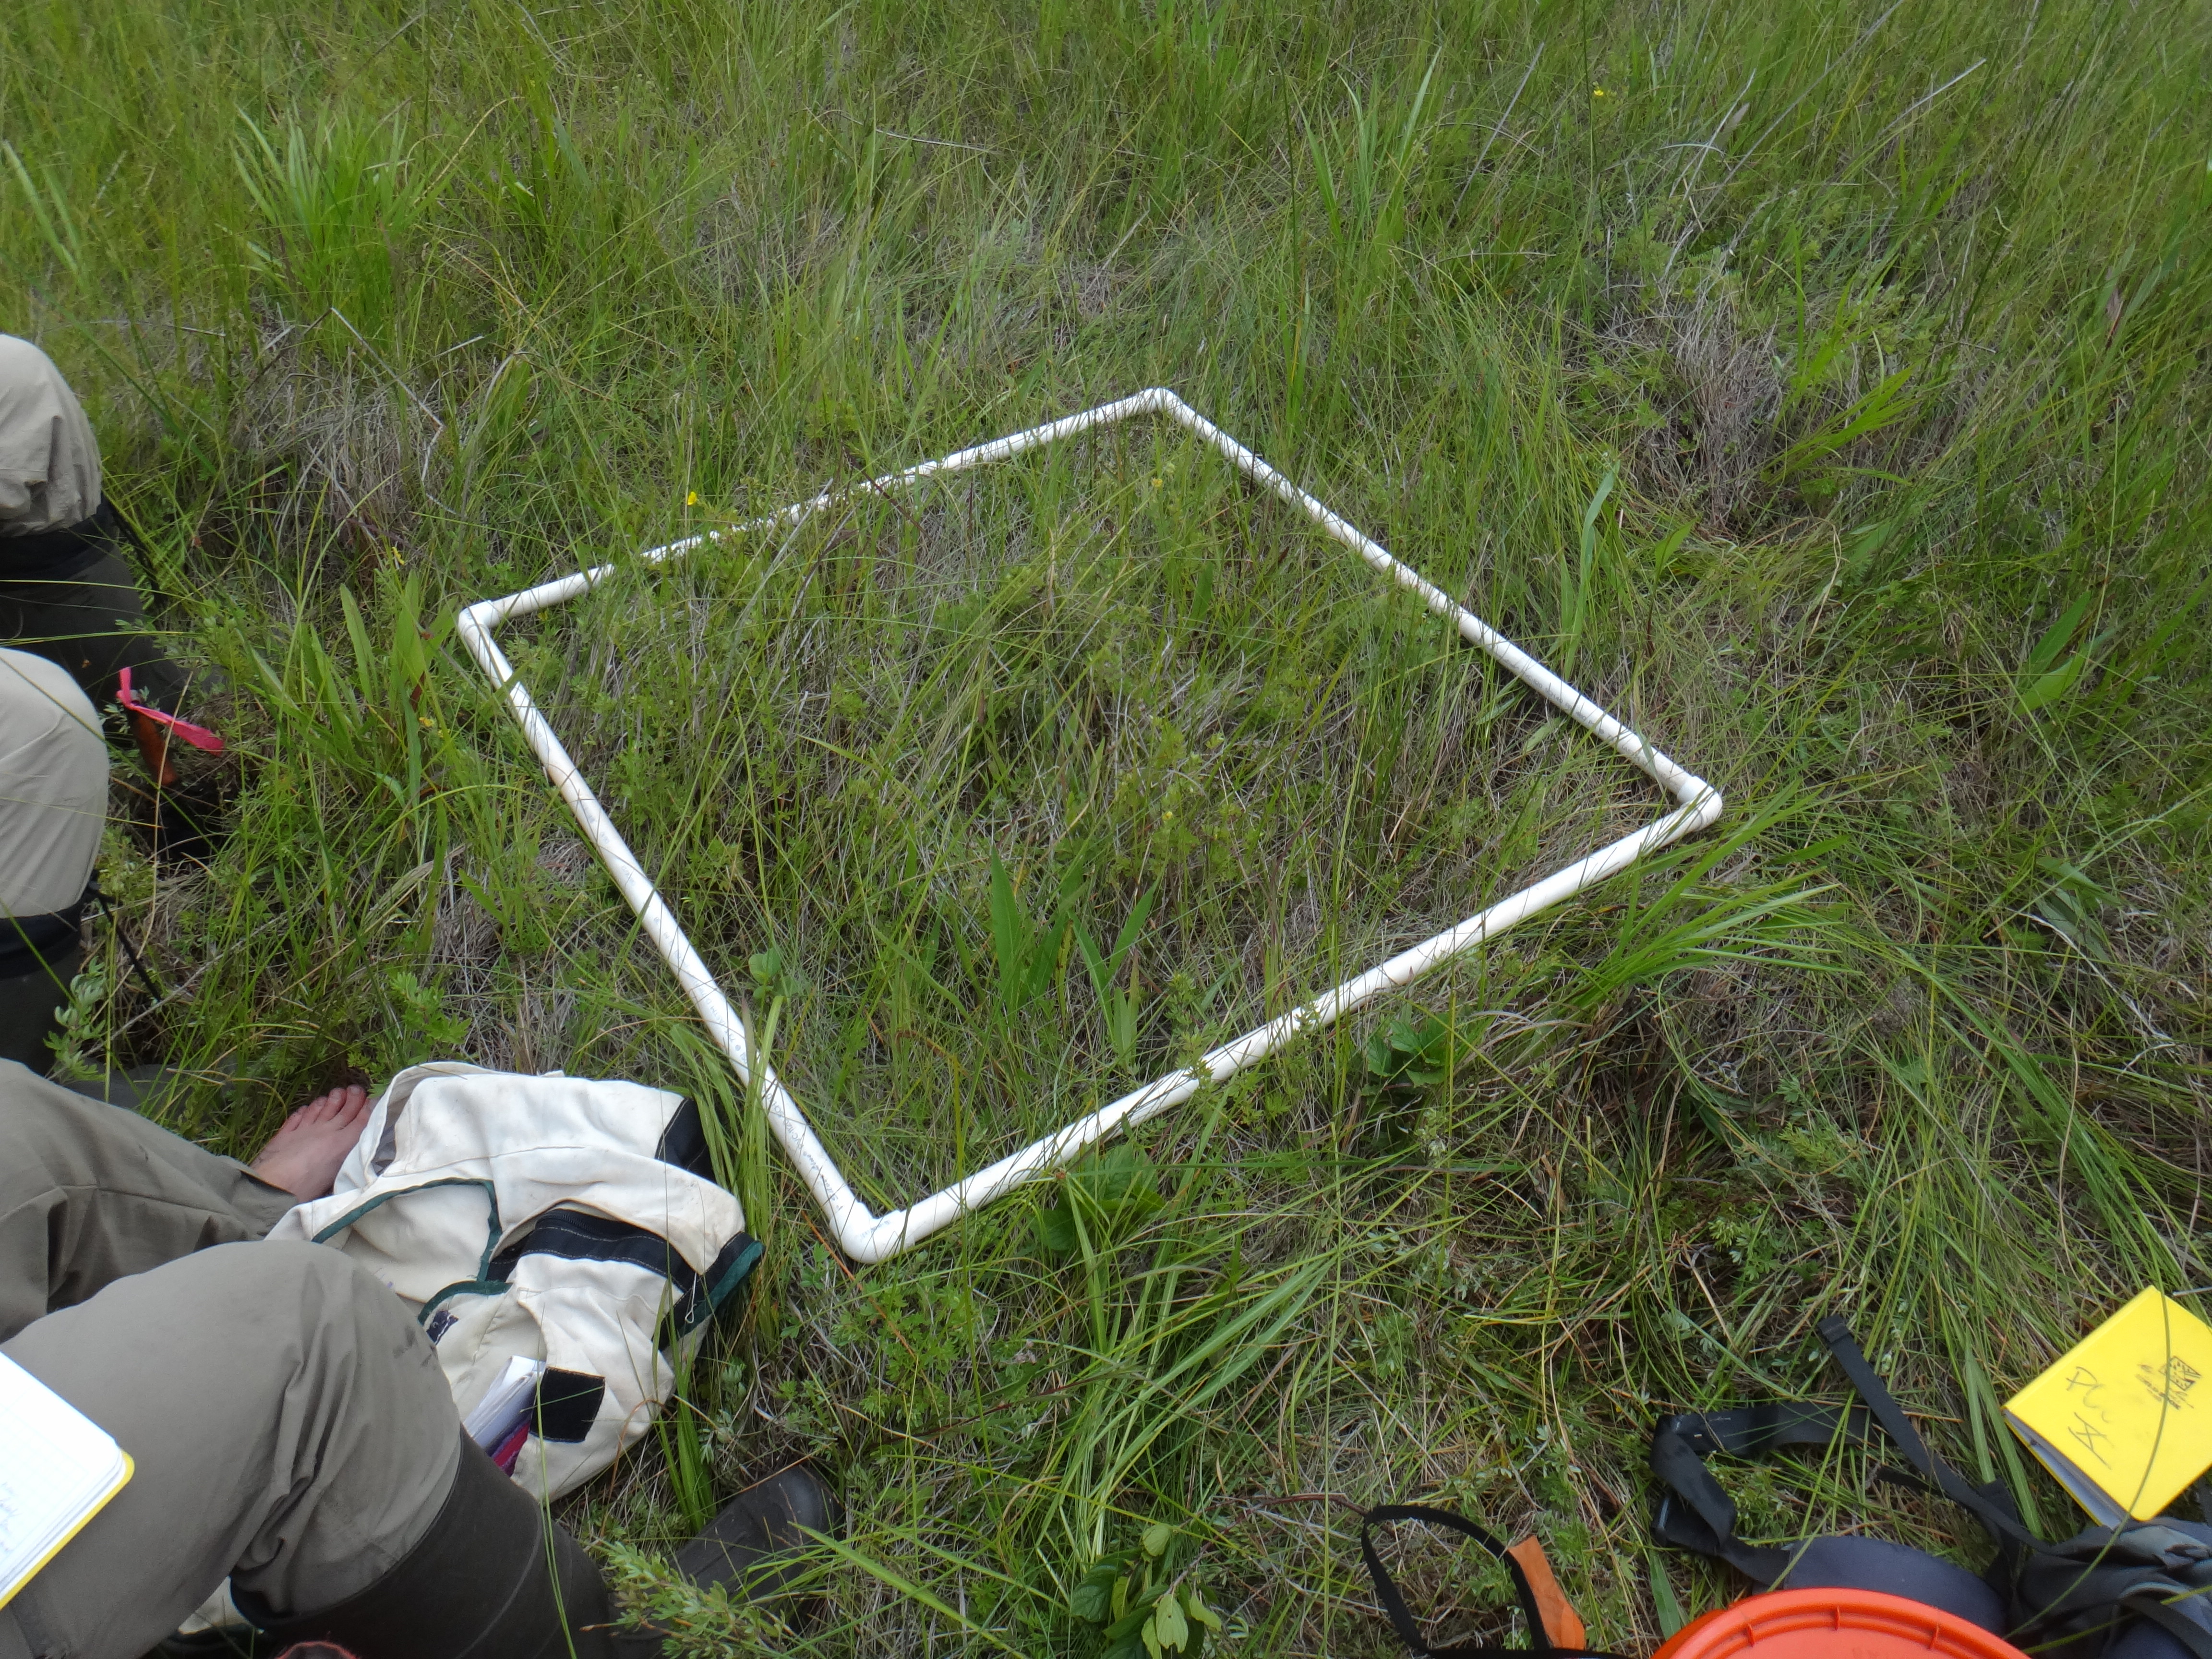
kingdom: Plantae
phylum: Tracheophyta
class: Liliopsida
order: Poales
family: Cyperaceae
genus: Cladium
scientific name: Cladium mariscoides
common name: Smooth sawgrass
